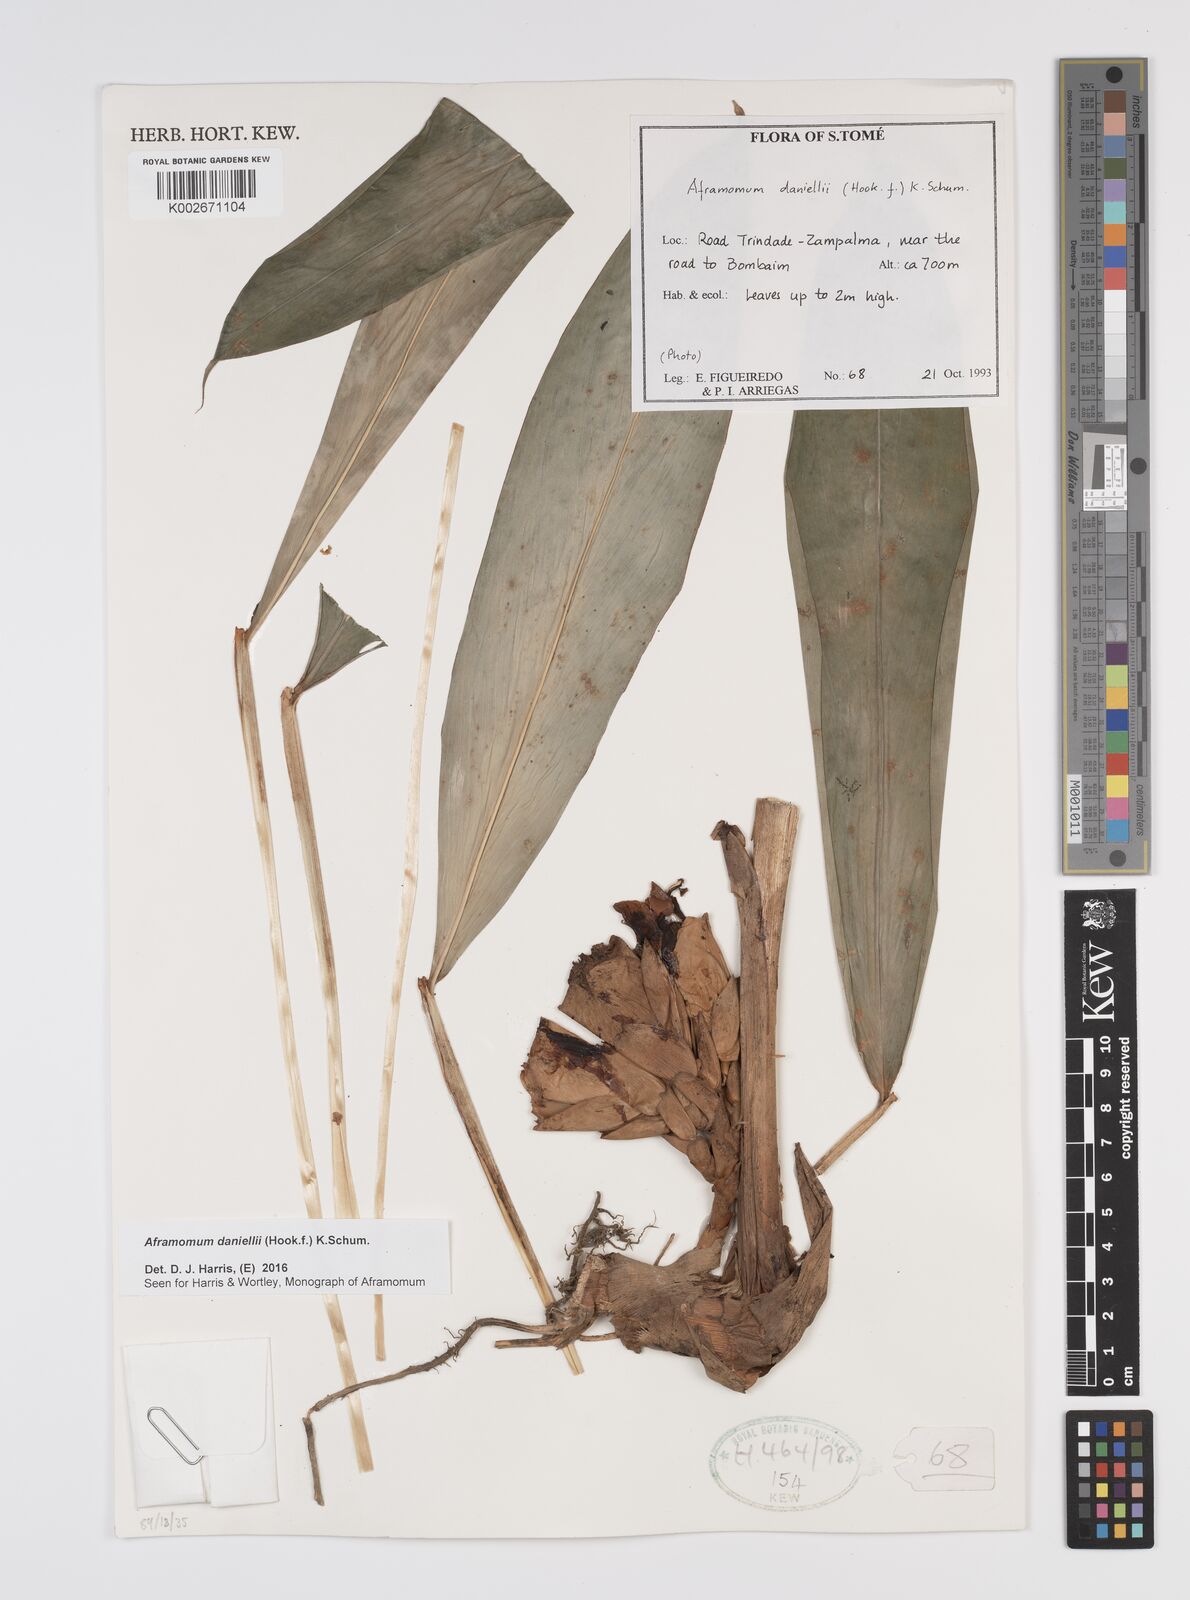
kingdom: Plantae
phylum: Tracheophyta
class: Liliopsida
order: Zingiberales
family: Zingiberaceae
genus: Aframomum
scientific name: Aframomum daniellii
